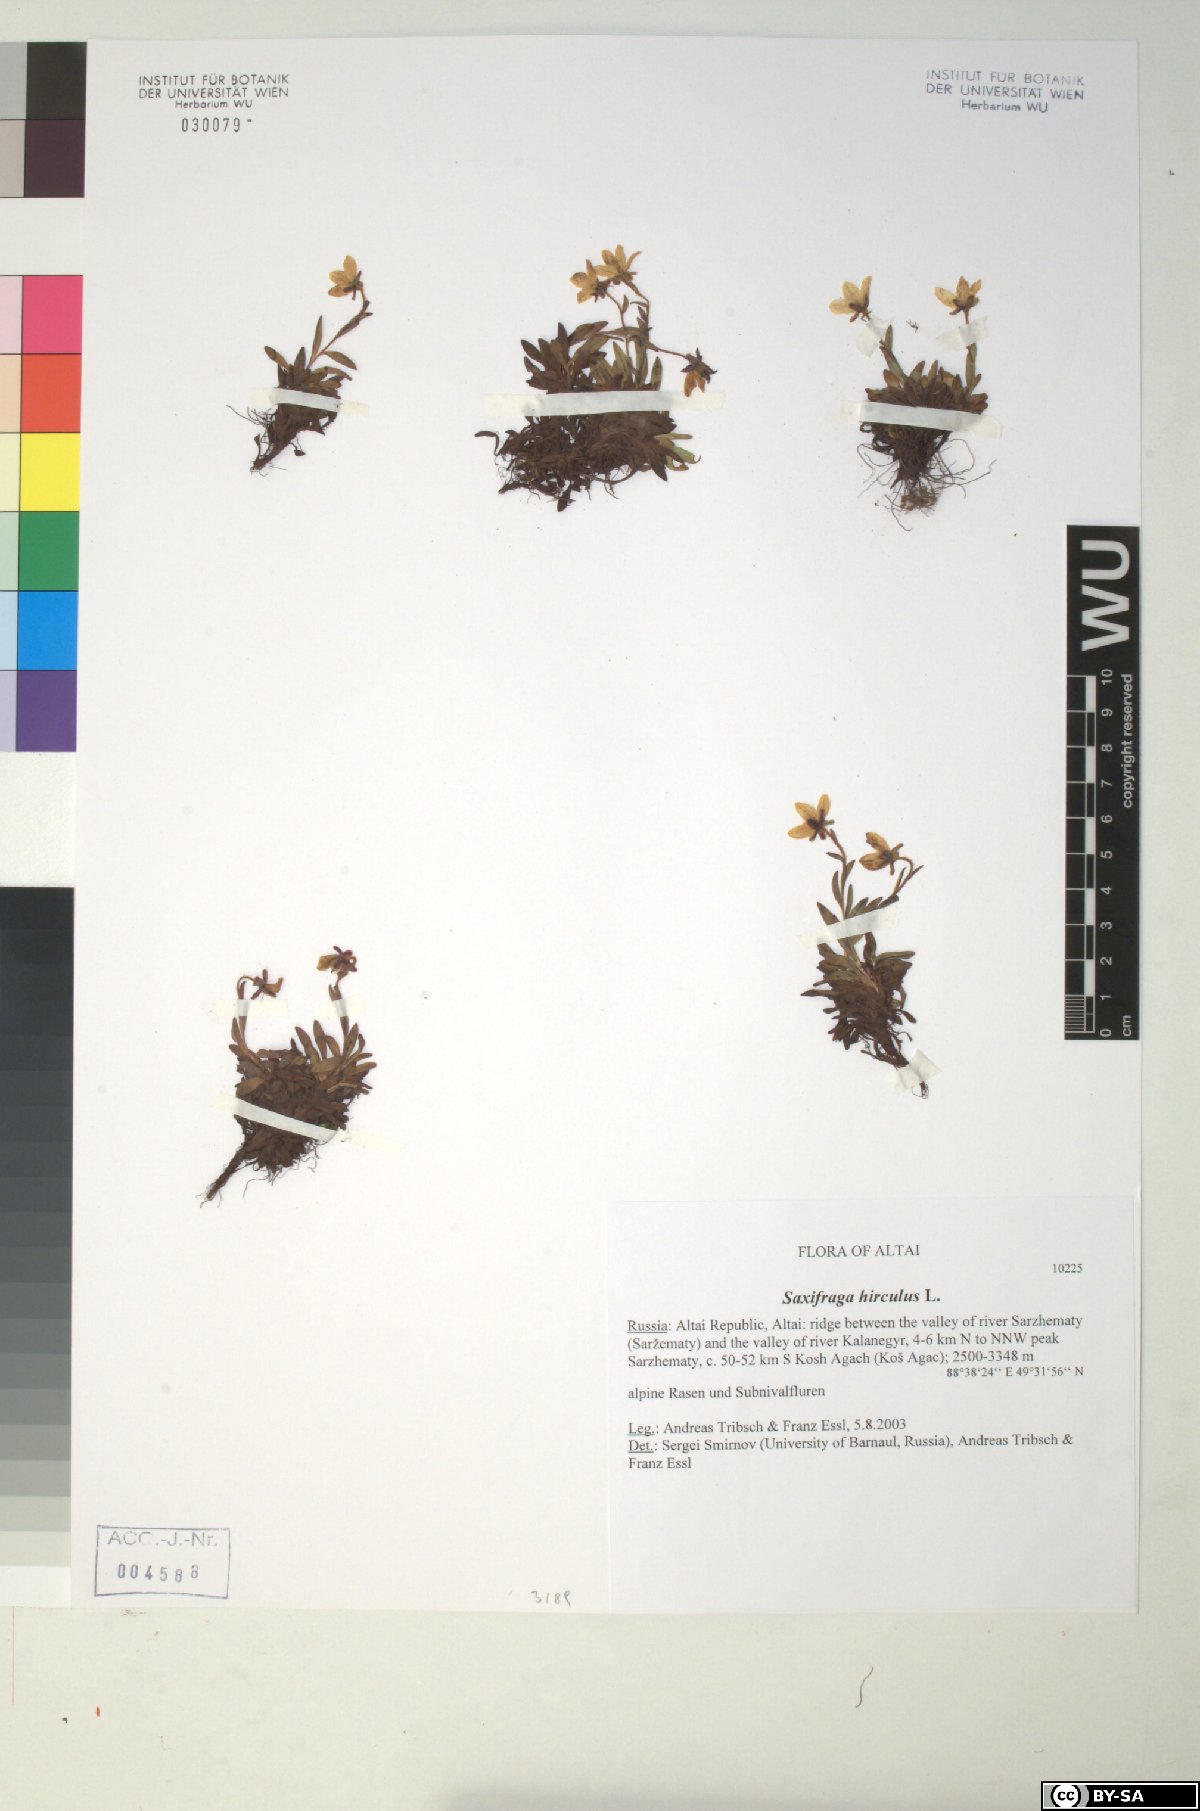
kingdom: Plantae
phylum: Tracheophyta
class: Magnoliopsida
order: Saxifragales
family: Saxifragaceae
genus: Saxifraga
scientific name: Saxifraga hirculus
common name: Yellow marsh saxifrage
